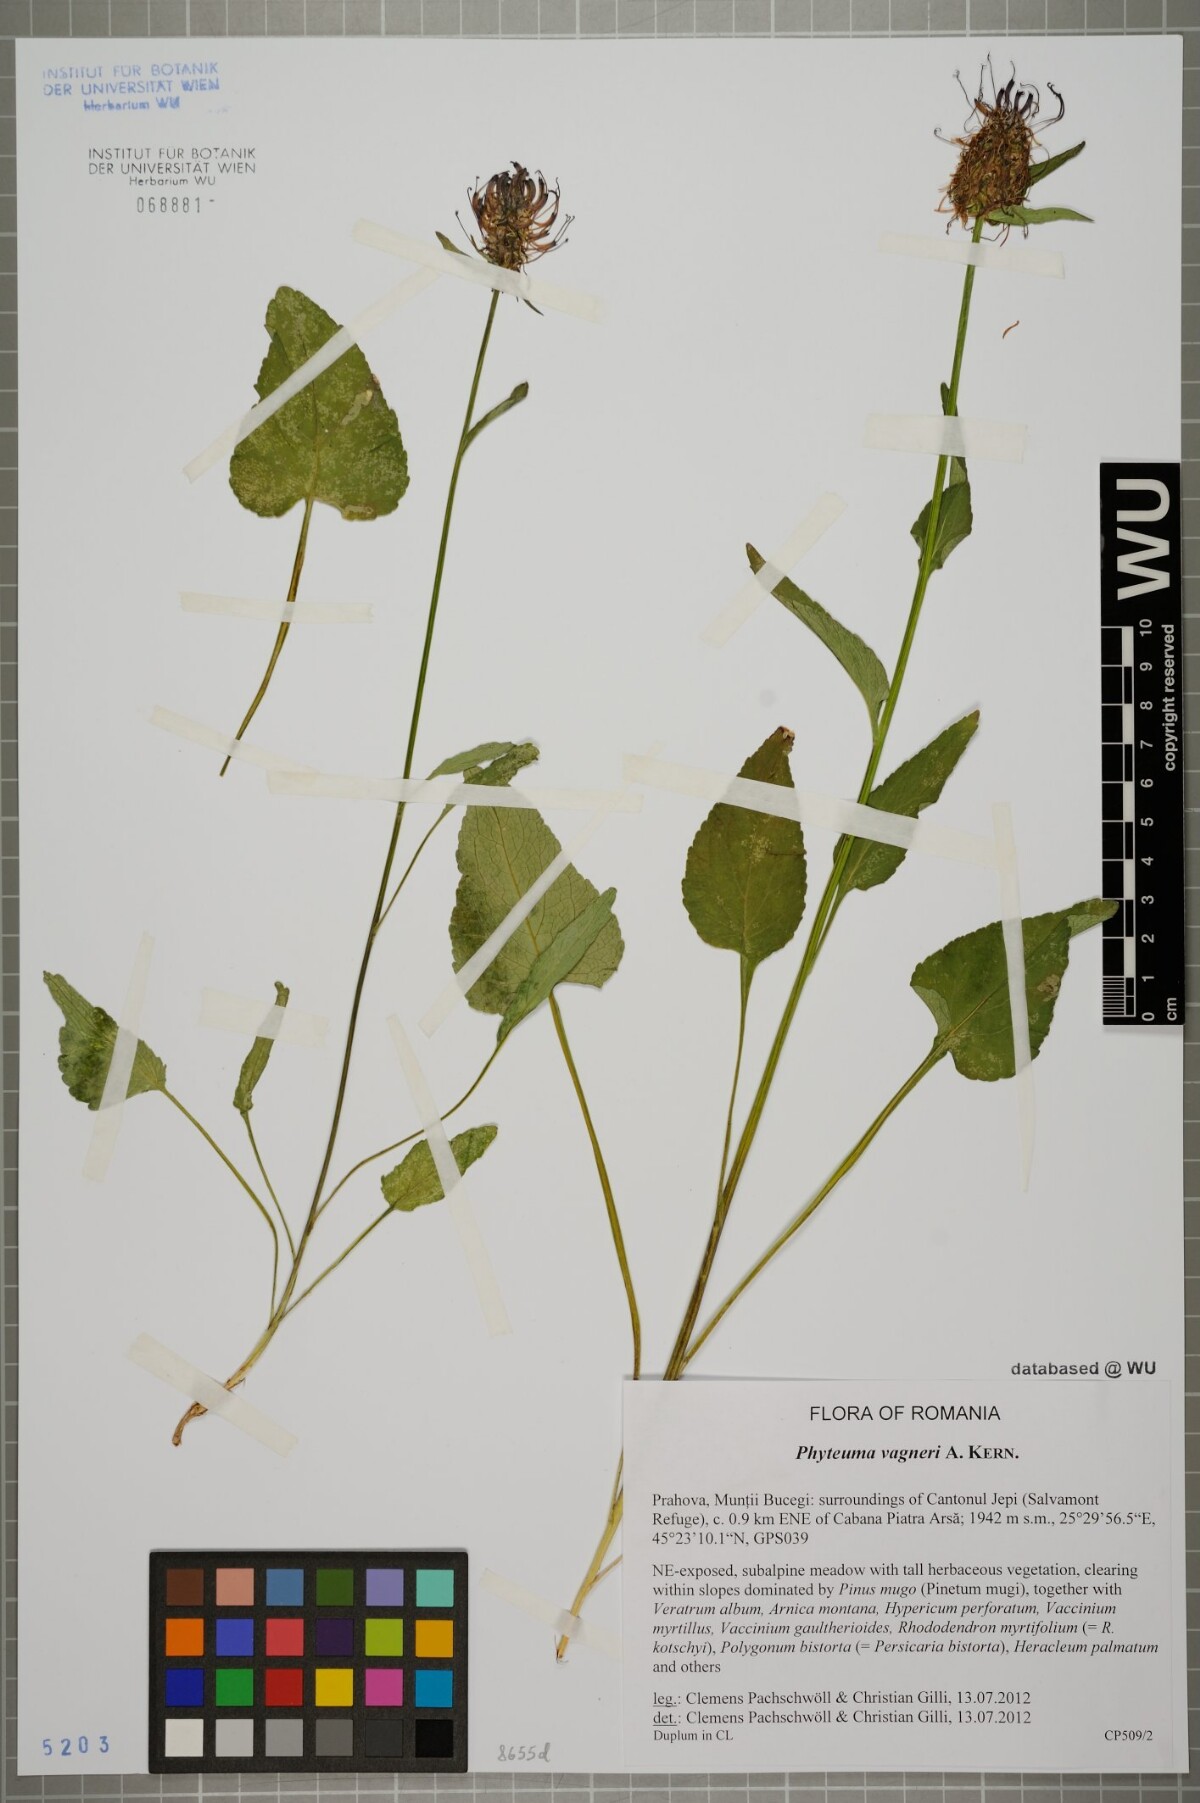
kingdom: Plantae
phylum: Tracheophyta
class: Magnoliopsida
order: Asterales
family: Campanulaceae
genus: Phyteuma
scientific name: Phyteuma vagneri
